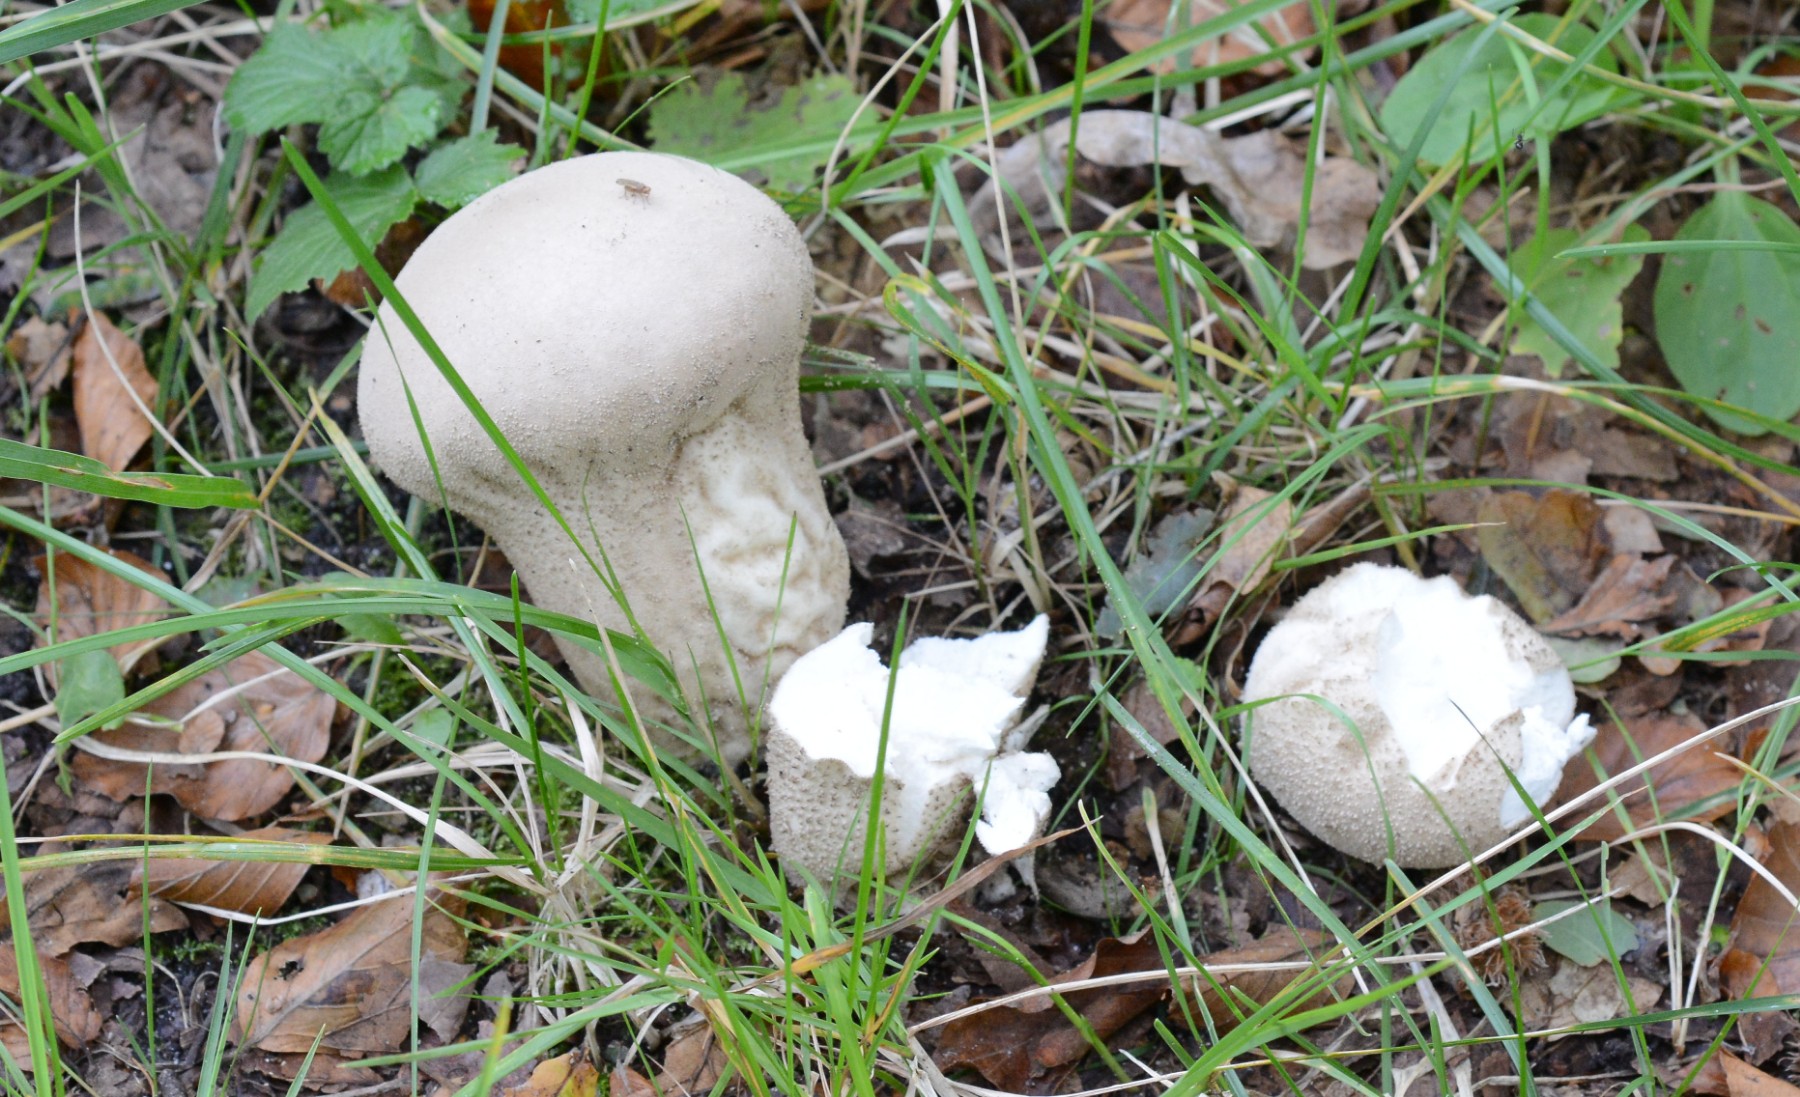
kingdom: Fungi
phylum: Basidiomycota
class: Agaricomycetes
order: Agaricales
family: Lycoperdaceae
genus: Lycoperdon
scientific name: Lycoperdon excipuliforme
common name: højstokket støvbold
